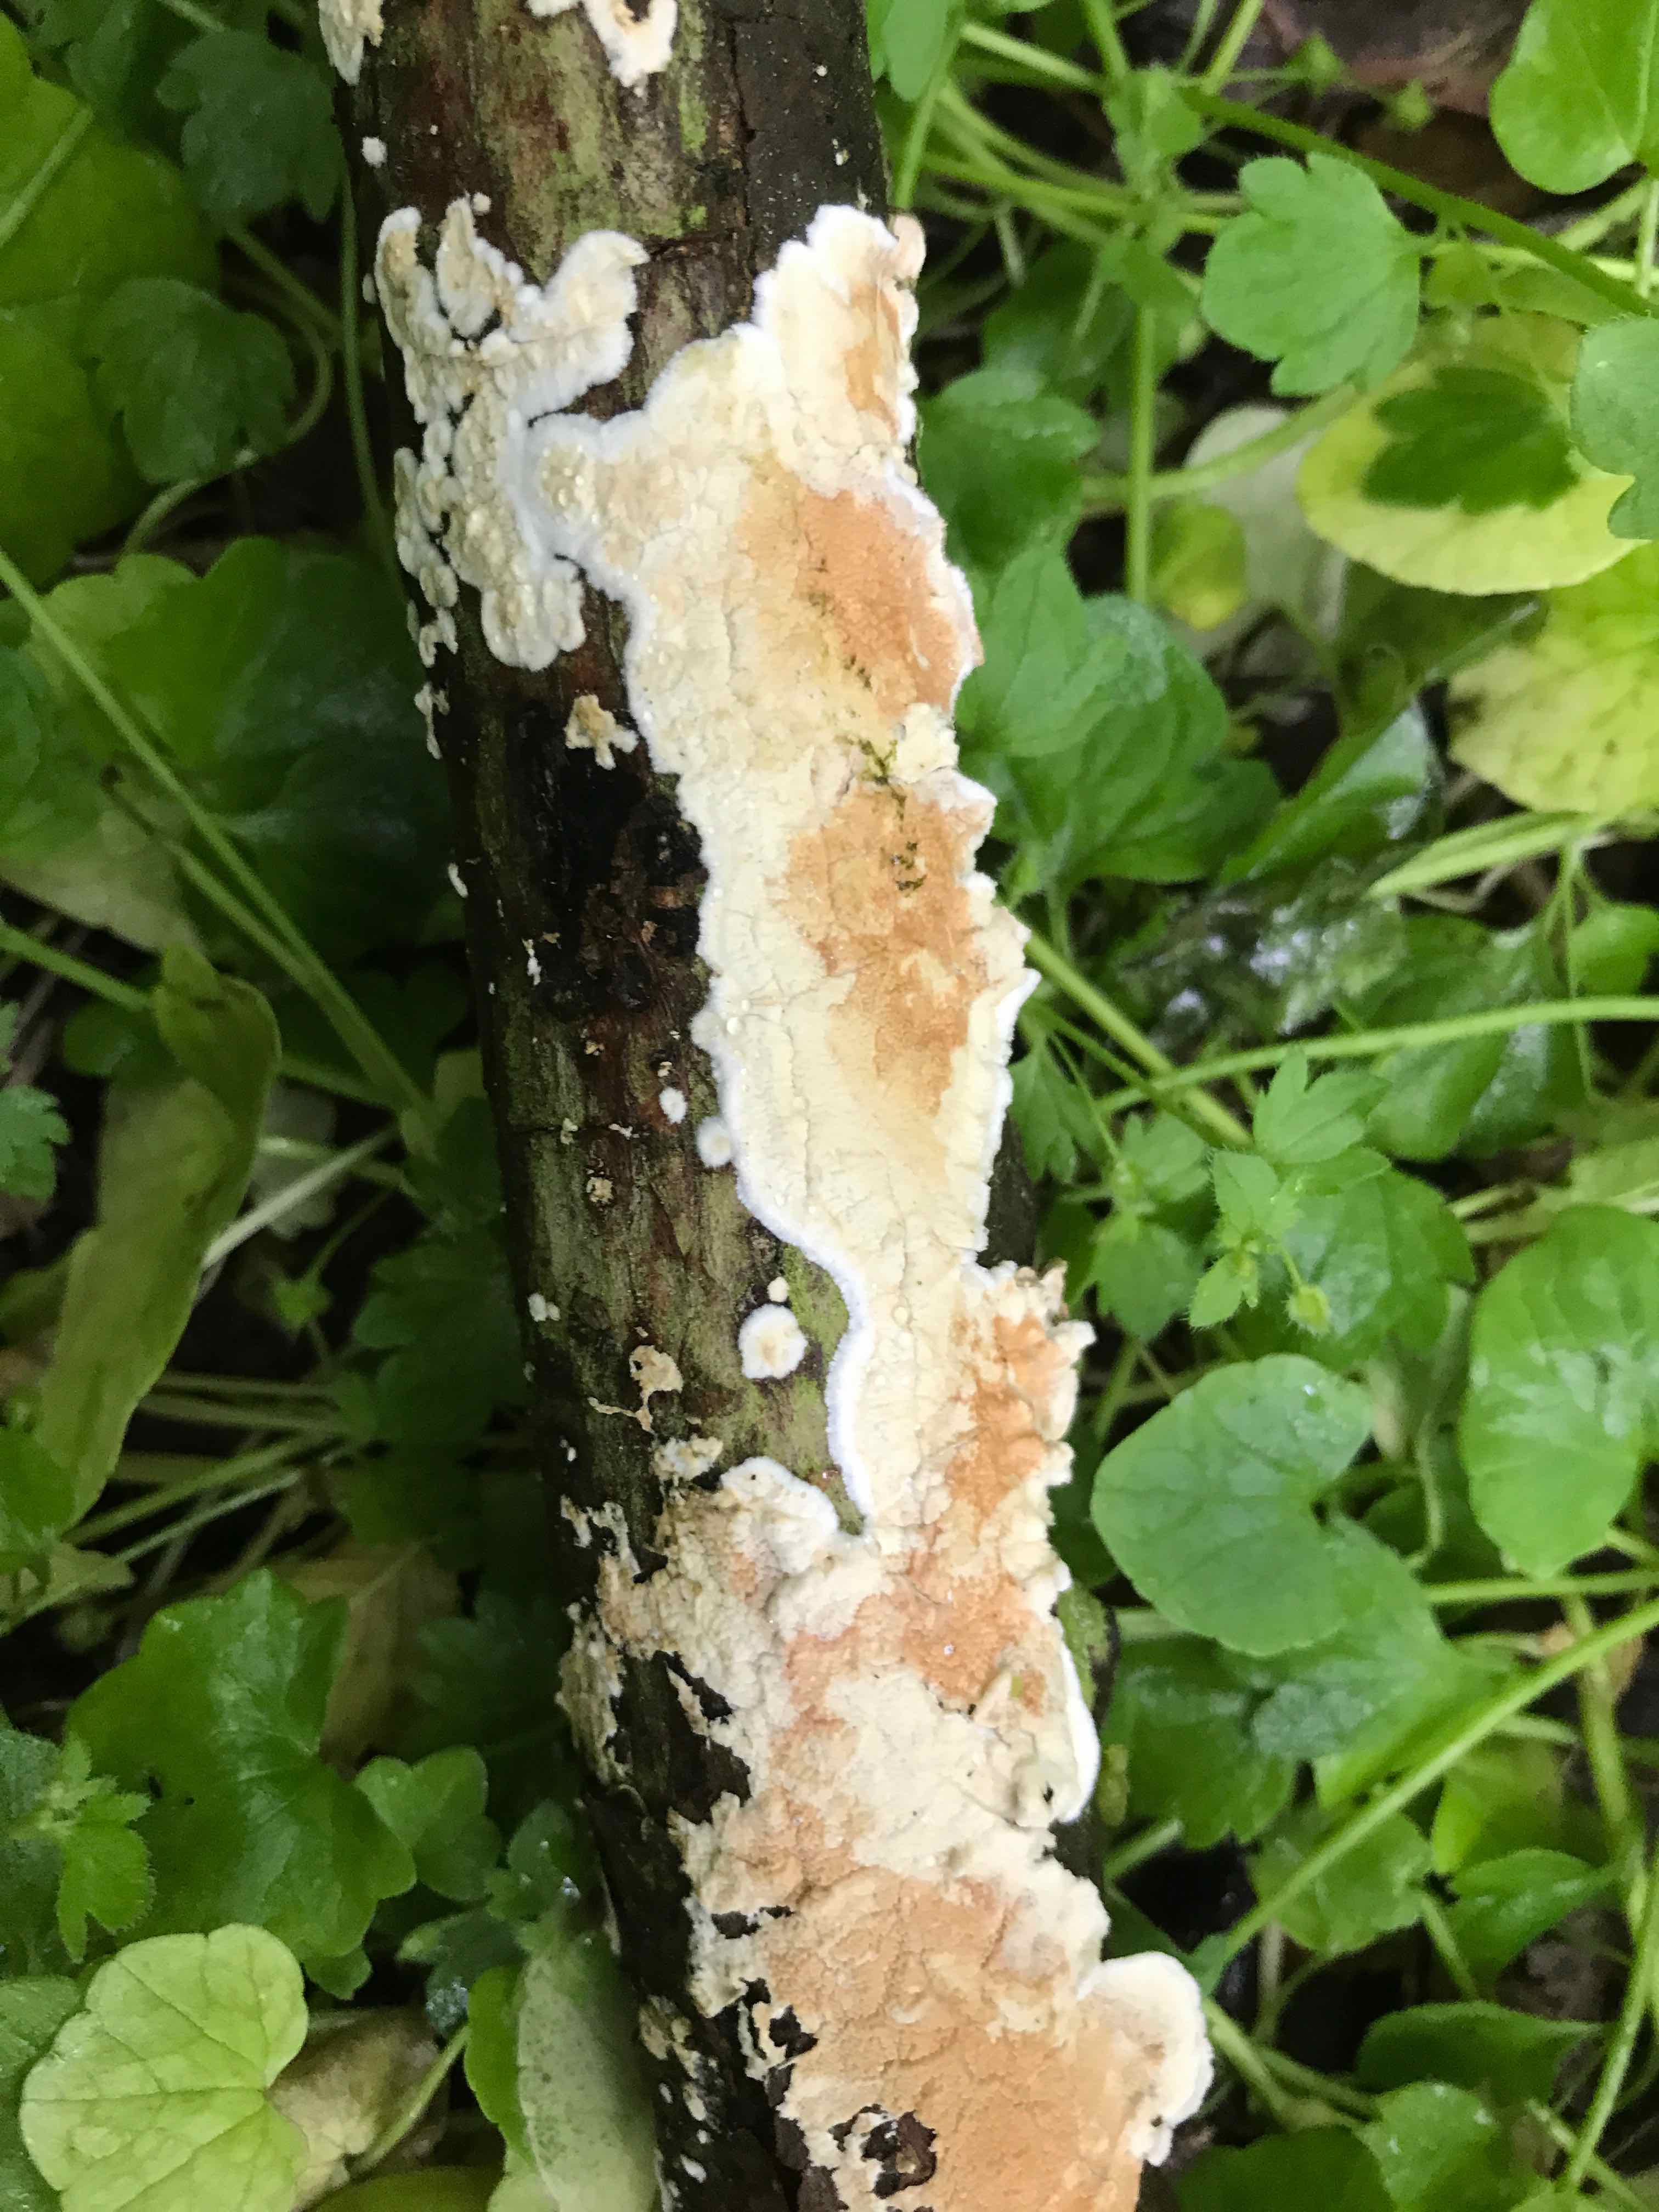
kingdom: Fungi
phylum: Basidiomycota
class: Agaricomycetes
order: Corticiales
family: Corticiaceae
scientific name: Corticiaceae
